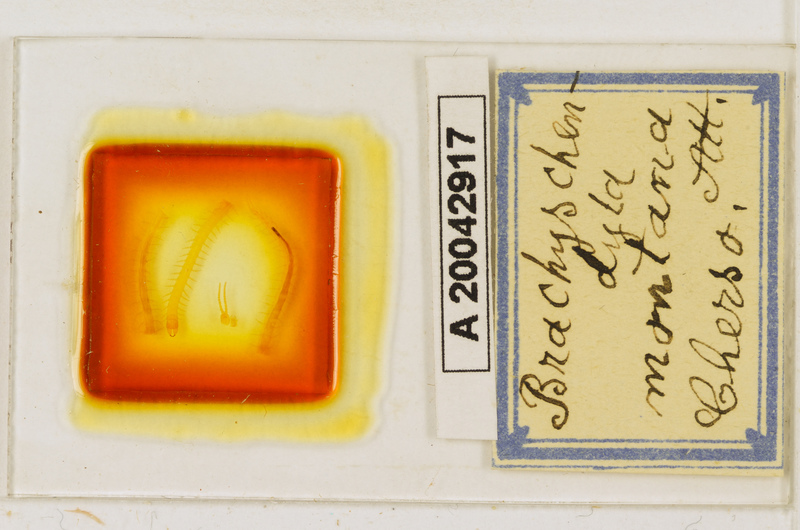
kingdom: Animalia
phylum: Arthropoda
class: Chilopoda
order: Geophilomorpha
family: Schendylidae
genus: Schendyla
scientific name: Schendyla
